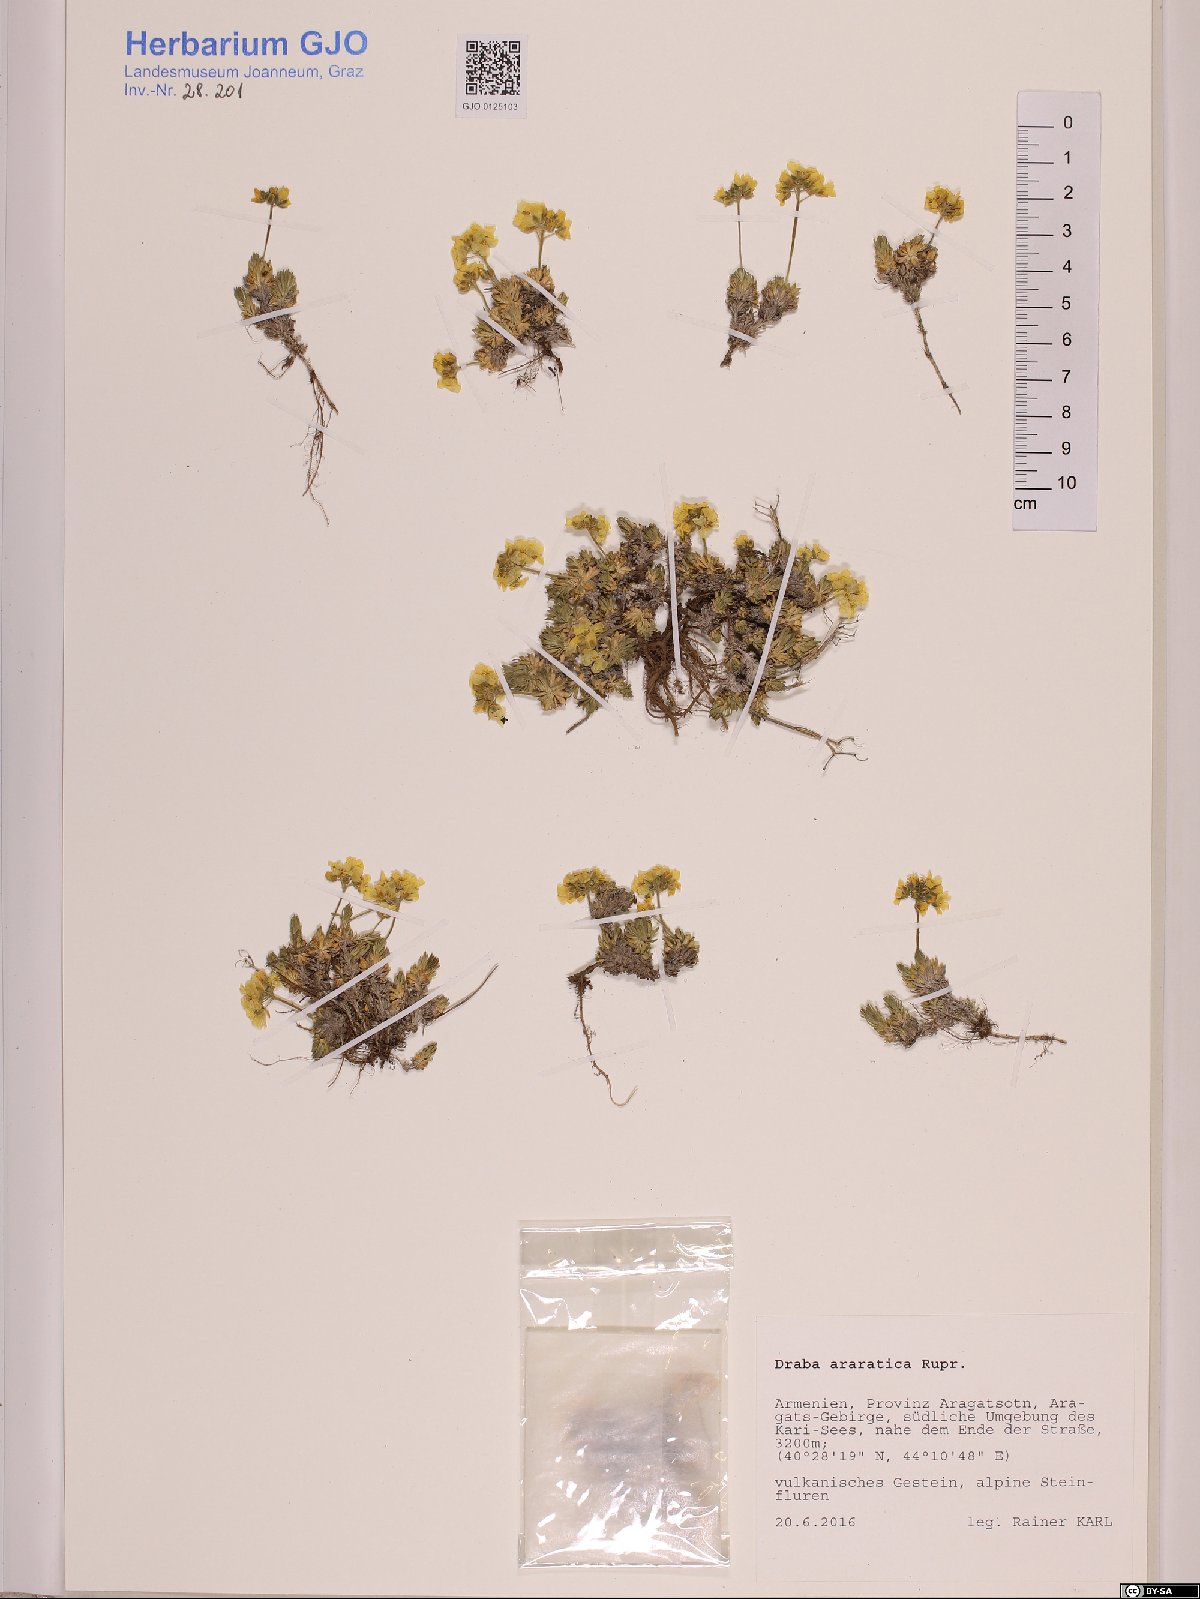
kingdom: Plantae
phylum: Tracheophyta
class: Magnoliopsida
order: Brassicales
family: Brassicaceae
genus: Draba
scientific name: Draba araratica
